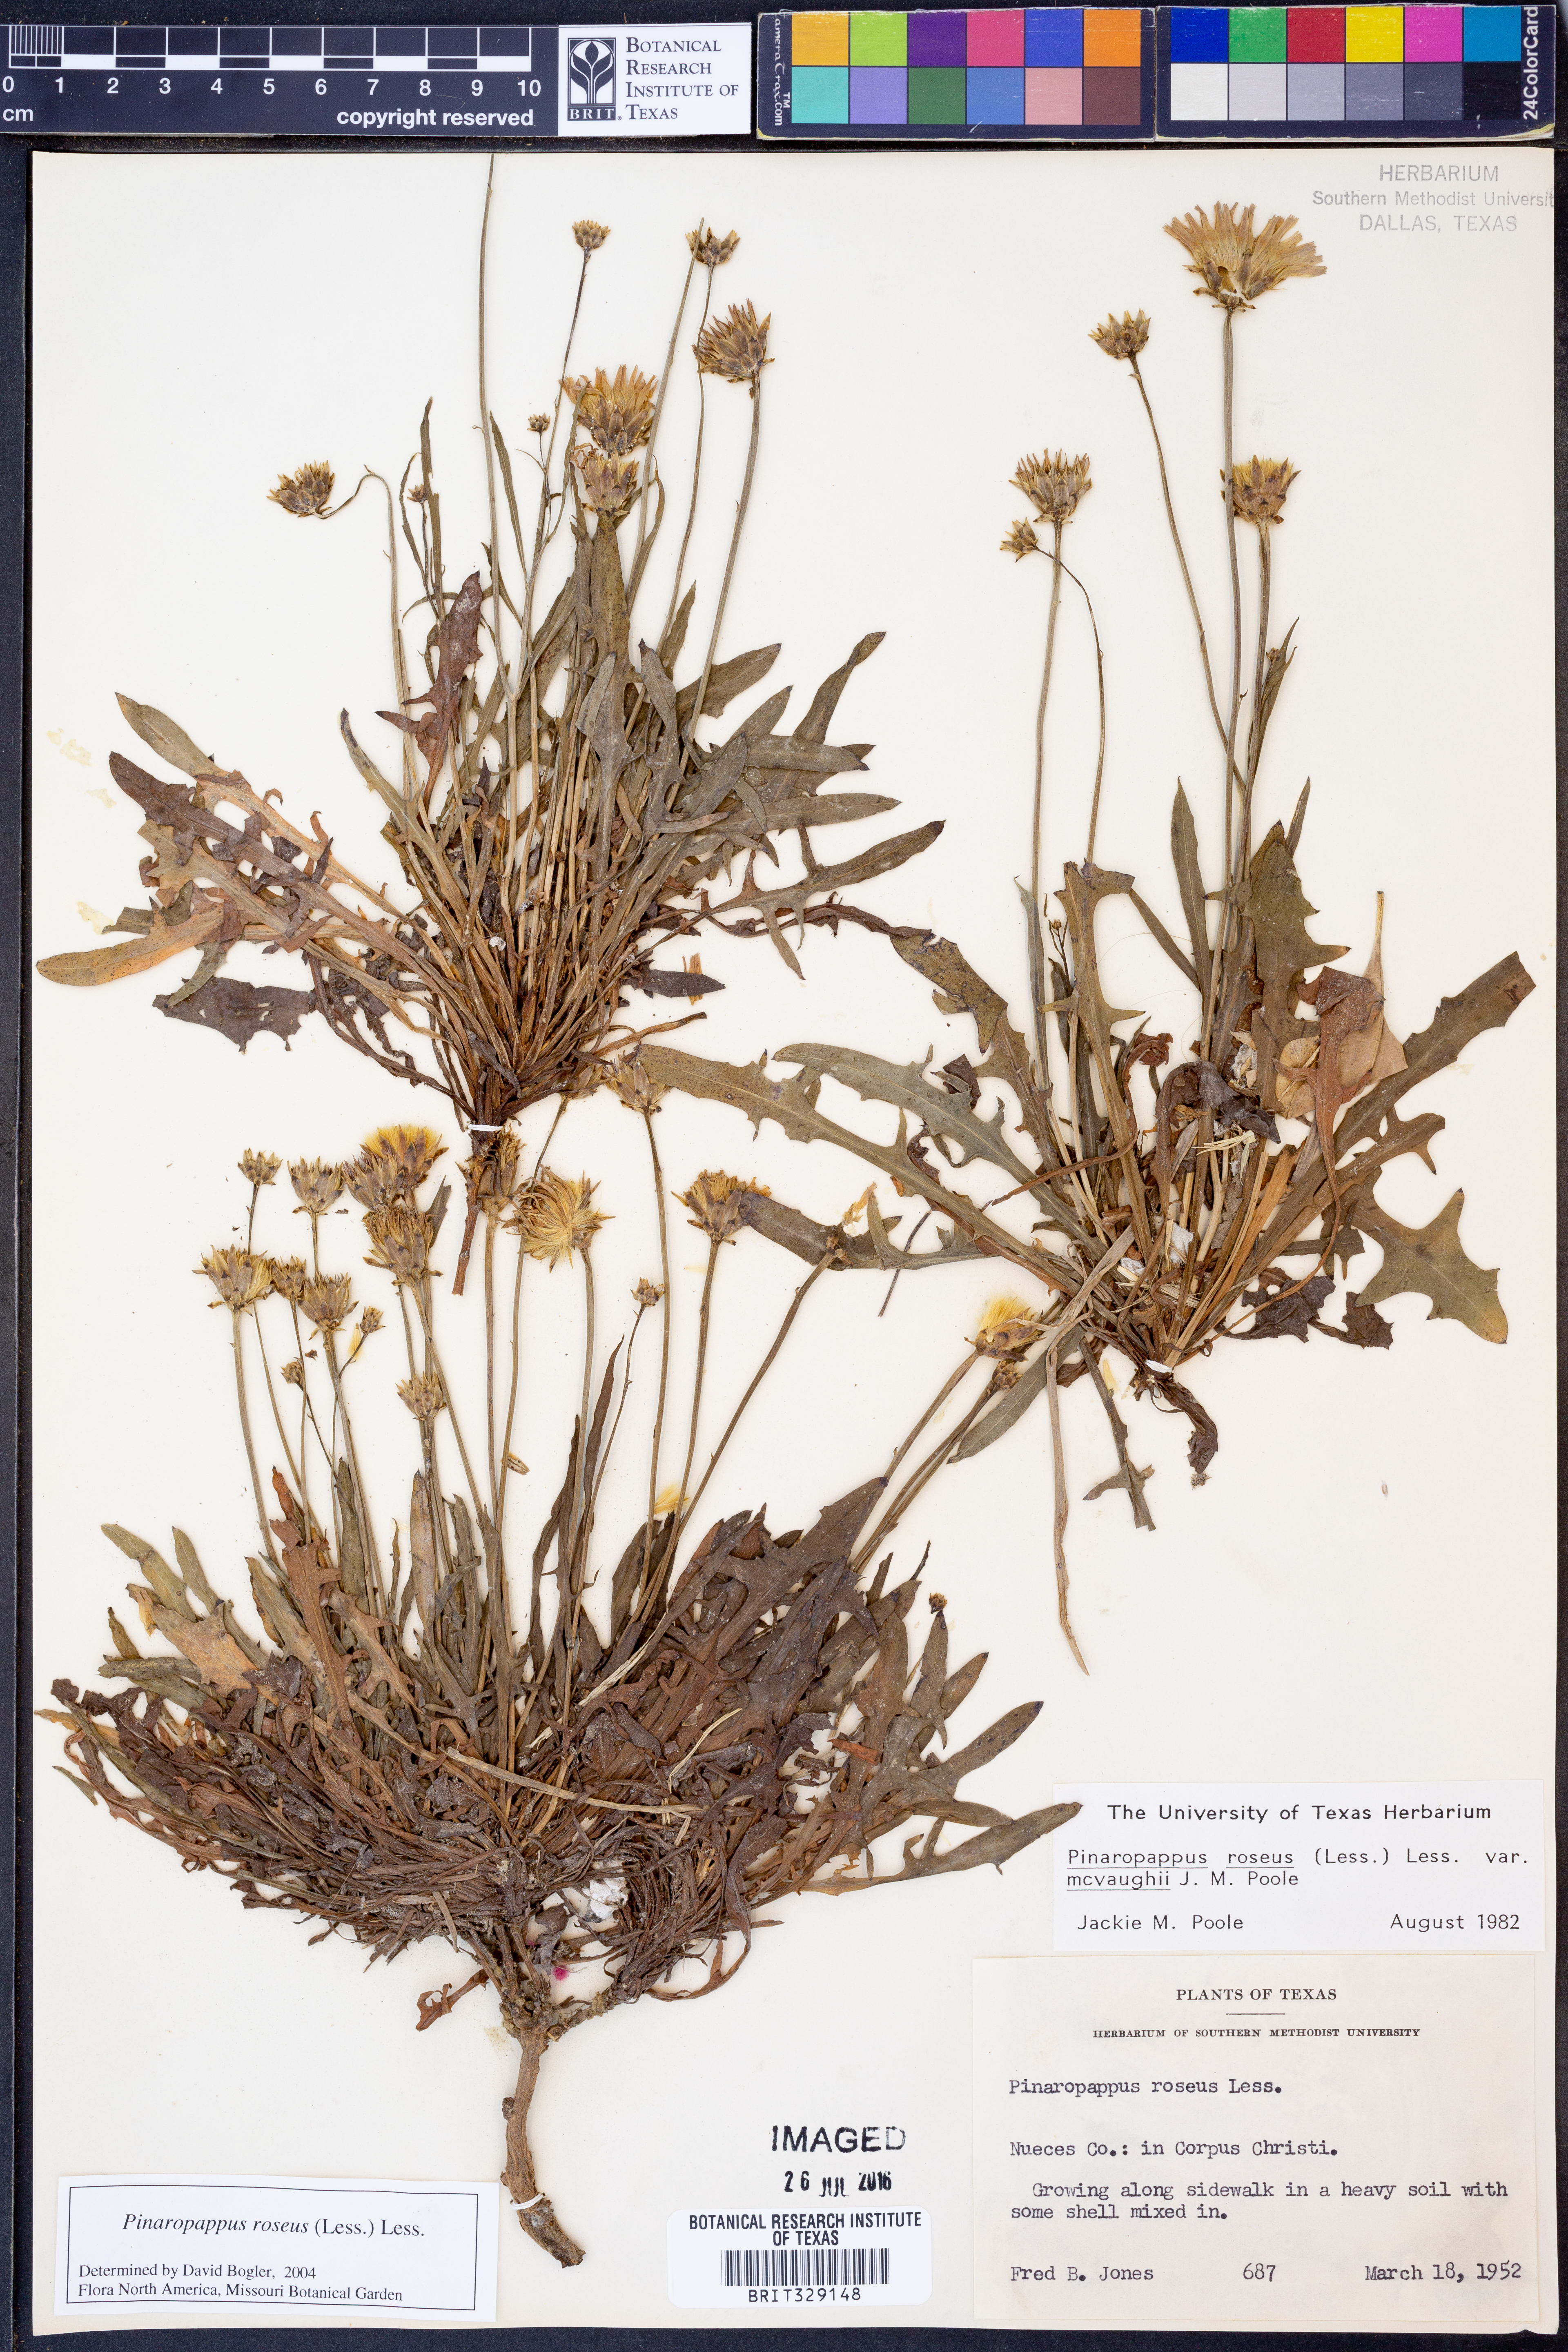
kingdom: Plantae
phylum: Tracheophyta
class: Magnoliopsida
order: Asterales
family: Asteraceae
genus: Pinaropappus
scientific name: Pinaropappus roseus
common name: Rock-lettuce
